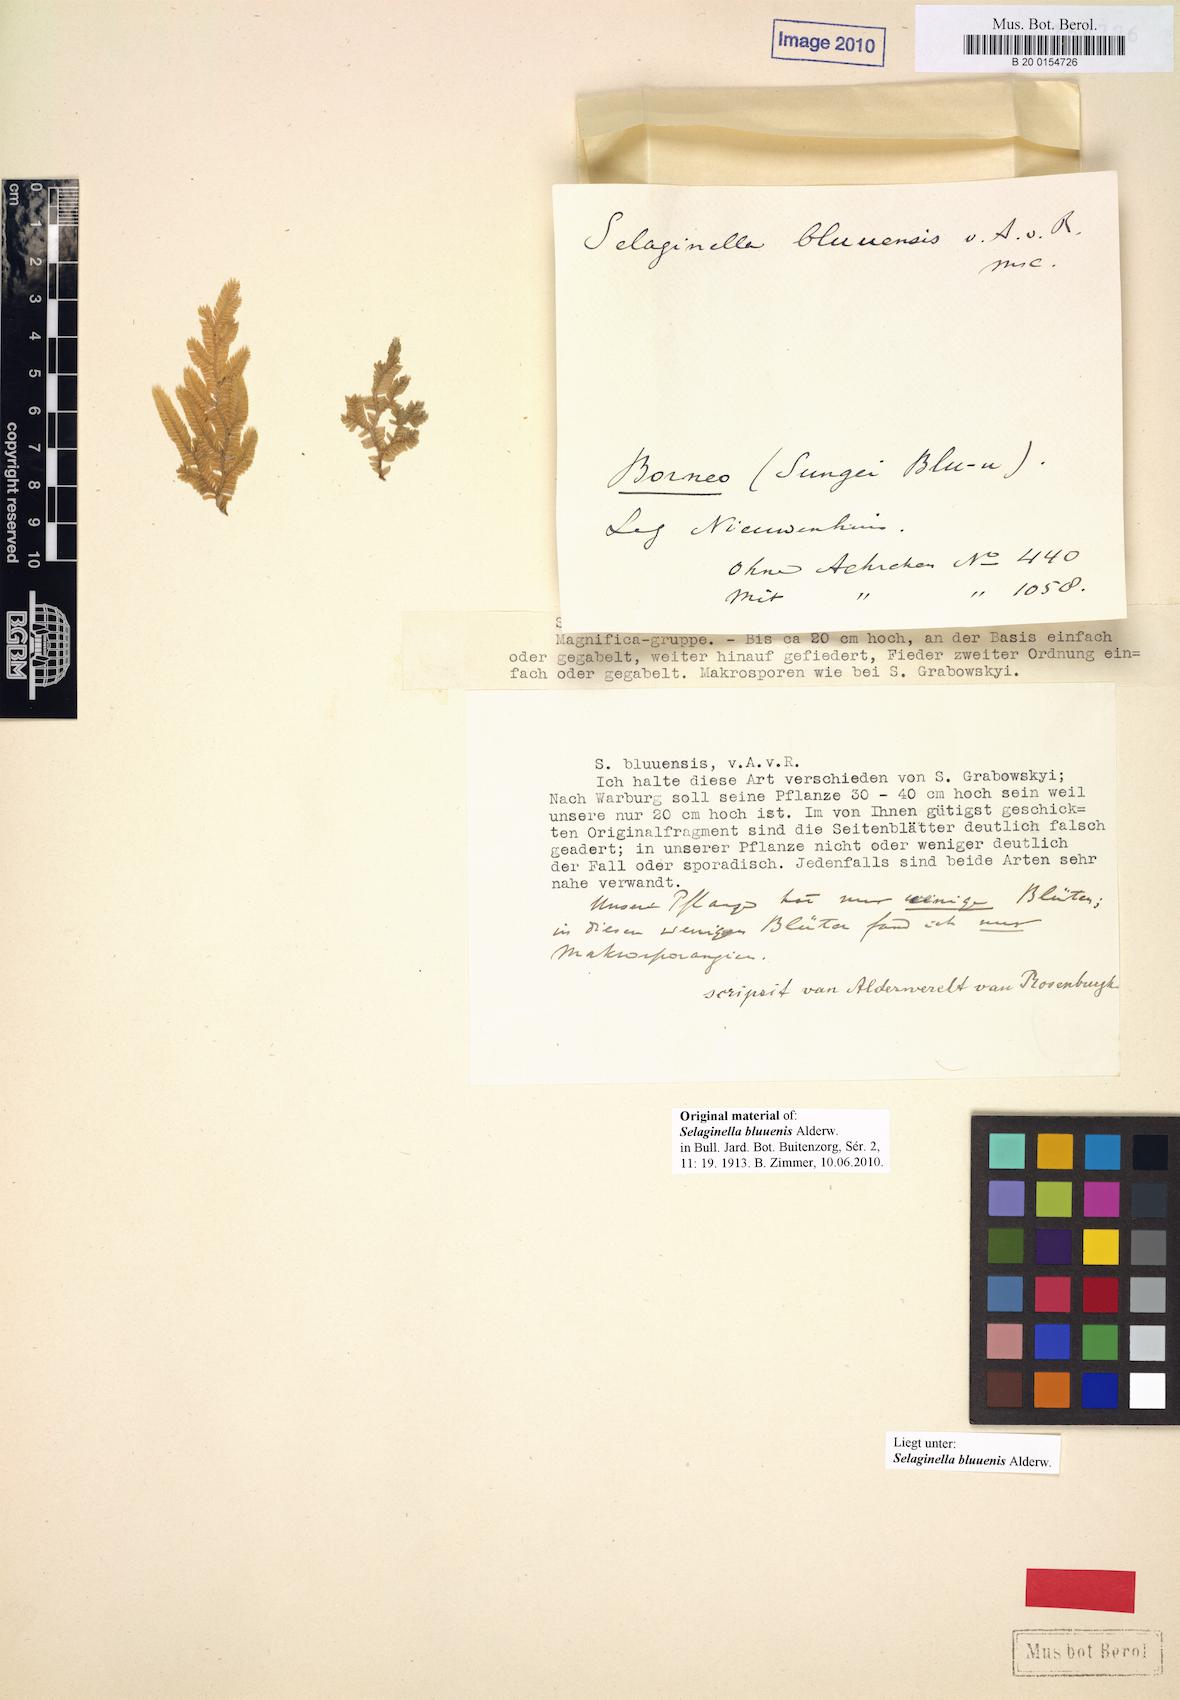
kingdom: Plantae
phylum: Tracheophyta
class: Lycopodiopsida
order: Selaginellales
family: Selaginellaceae
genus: Selaginella
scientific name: Selaginella bluuensis
